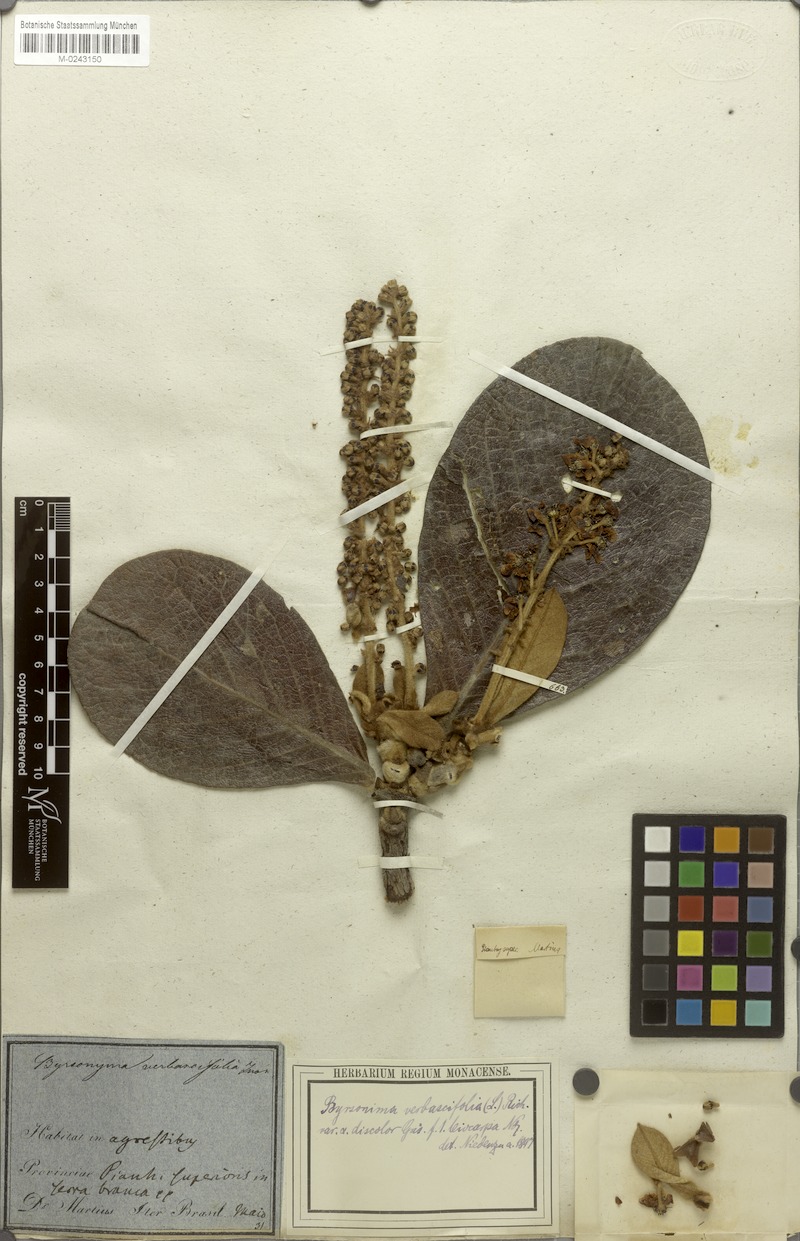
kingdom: Plantae
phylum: Tracheophyta
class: Magnoliopsida
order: Malpighiales
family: Malpighiaceae
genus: Byrsonima
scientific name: Byrsonima verbascifolia
